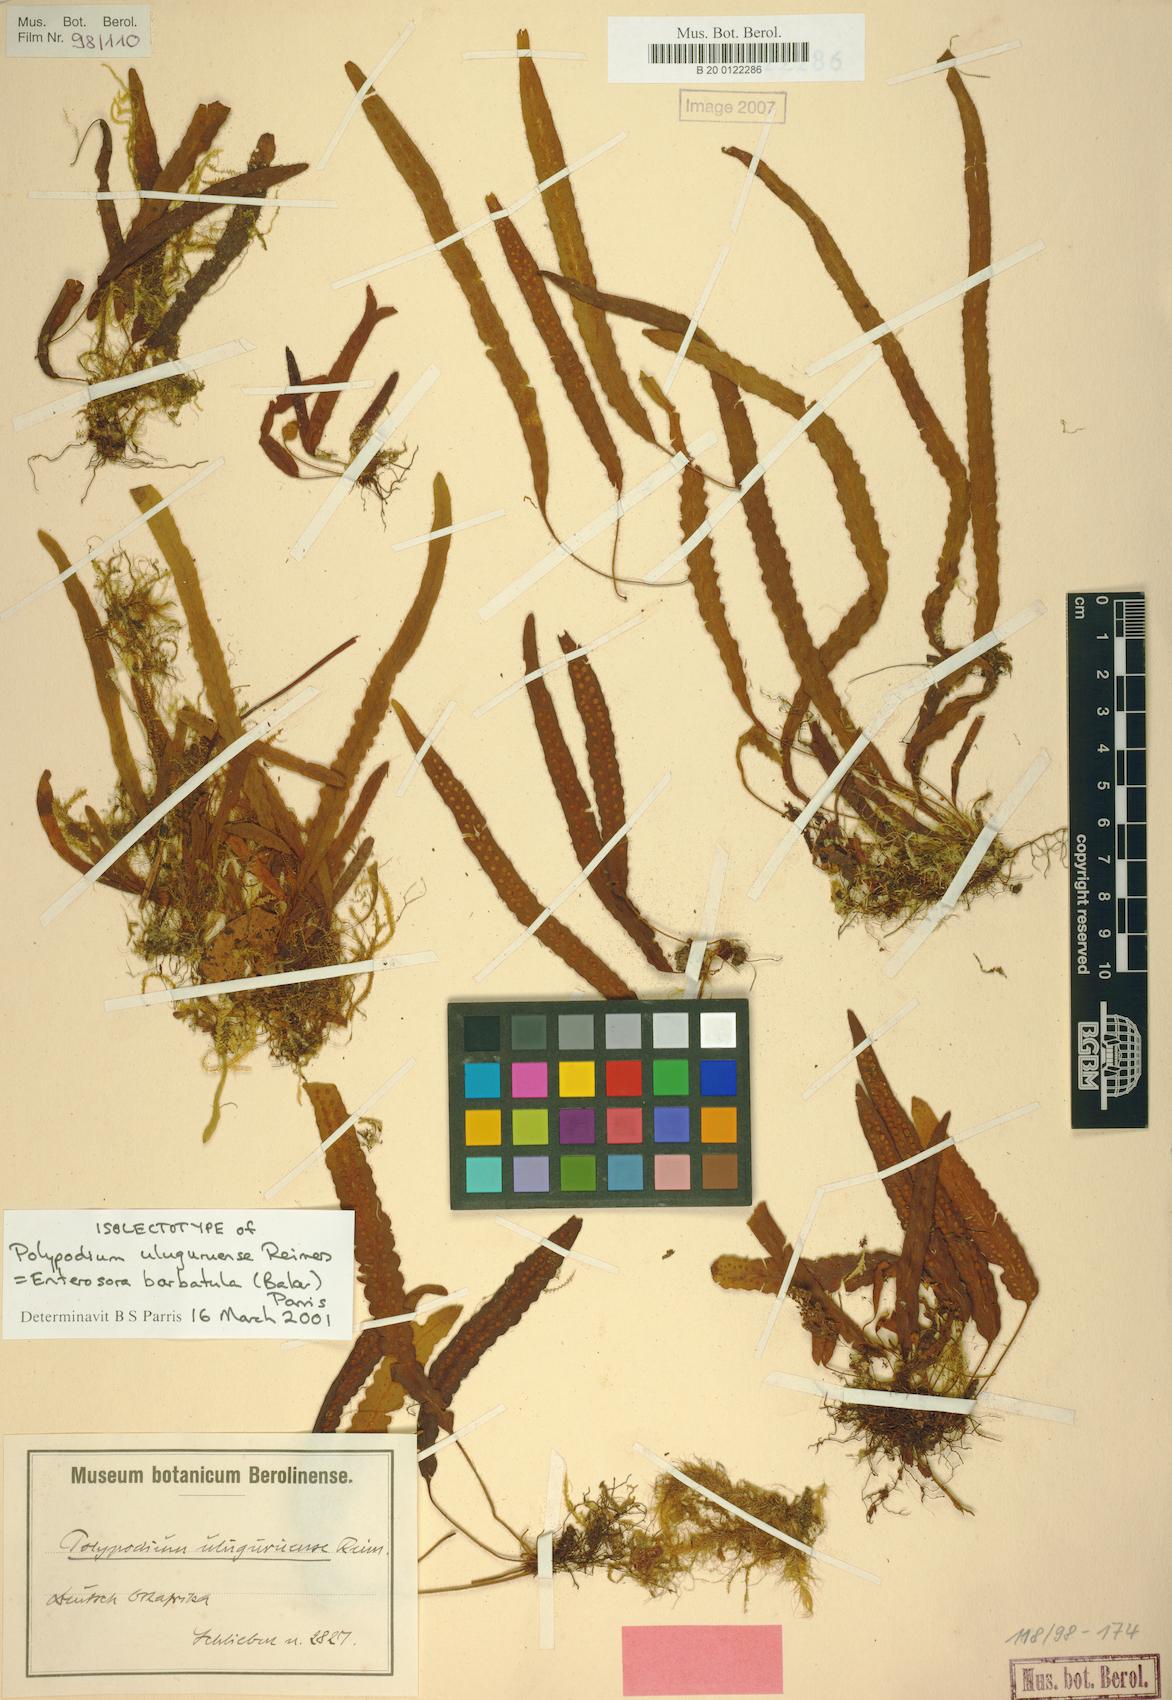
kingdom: Plantae
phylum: Tracheophyta
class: Polypodiopsida
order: Polypodiales
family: Polypodiaceae
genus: Enterosora
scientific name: Enterosora barbatula
